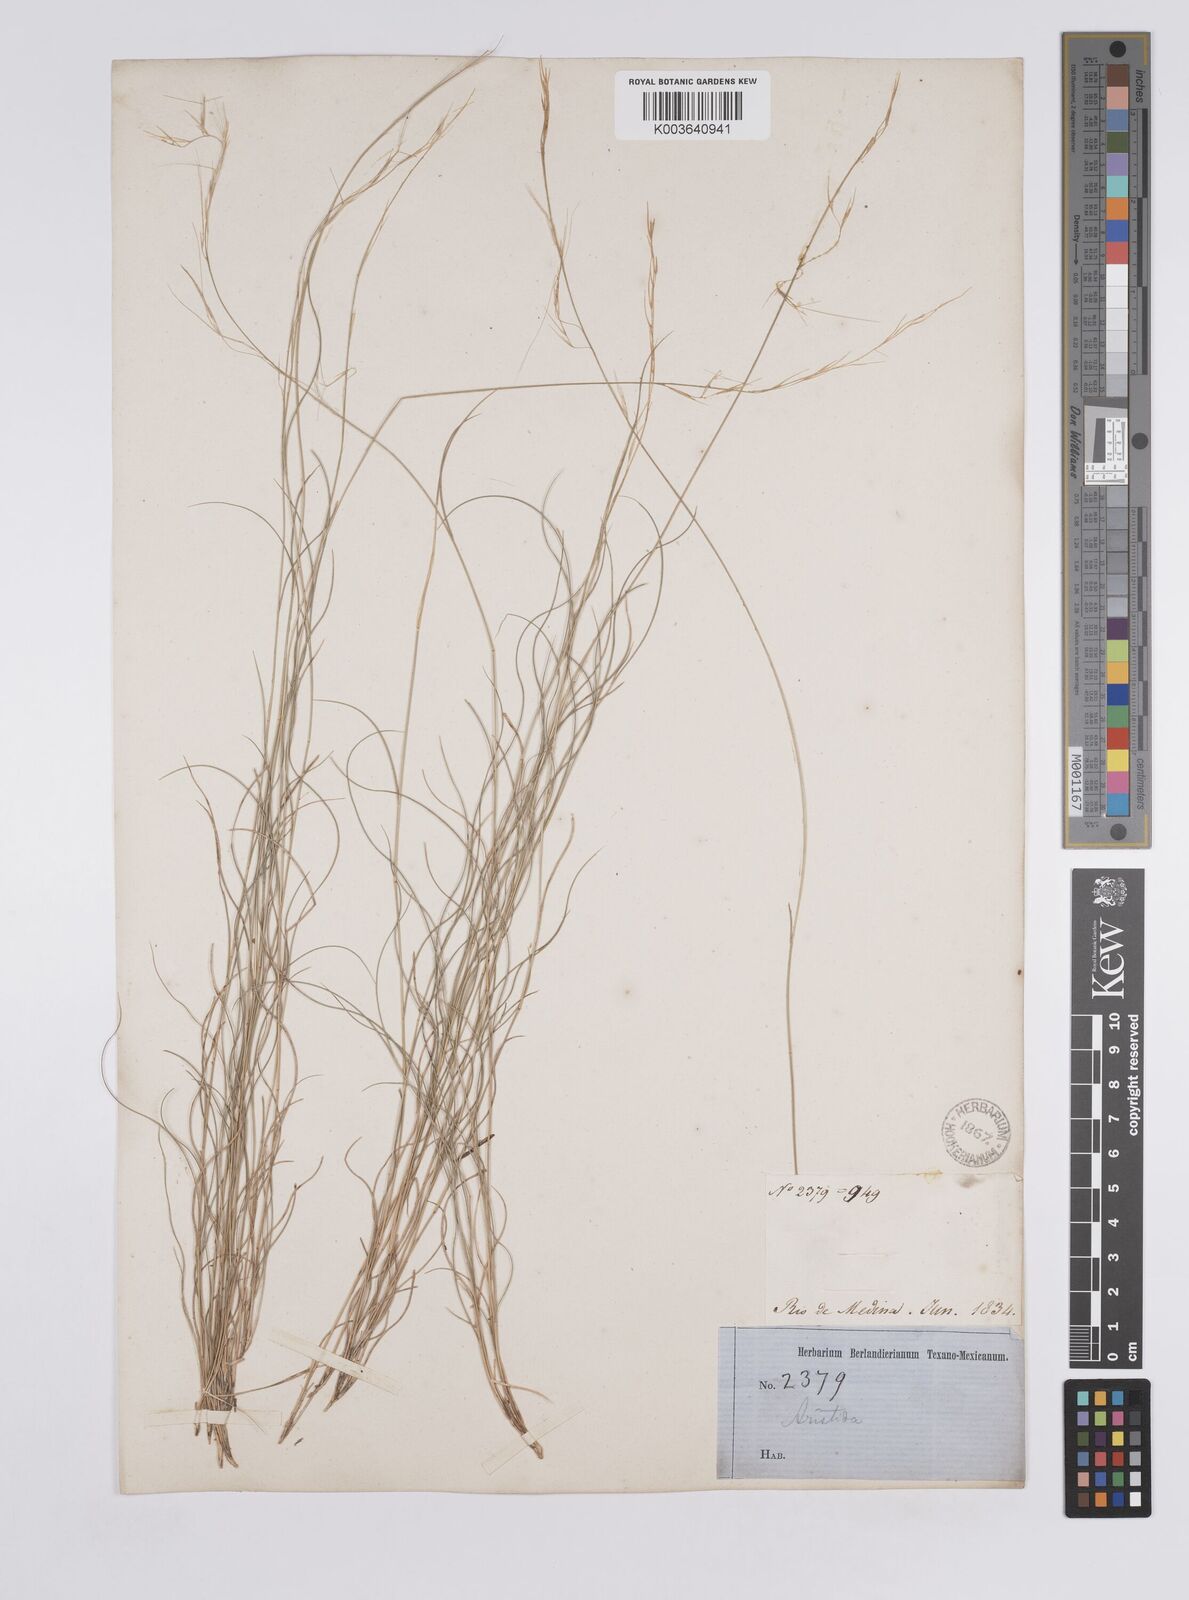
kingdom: Plantae
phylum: Tracheophyta
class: Liliopsida
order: Poales
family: Poaceae
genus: Aristida
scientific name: Aristida purpurea
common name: Purple threeawn
